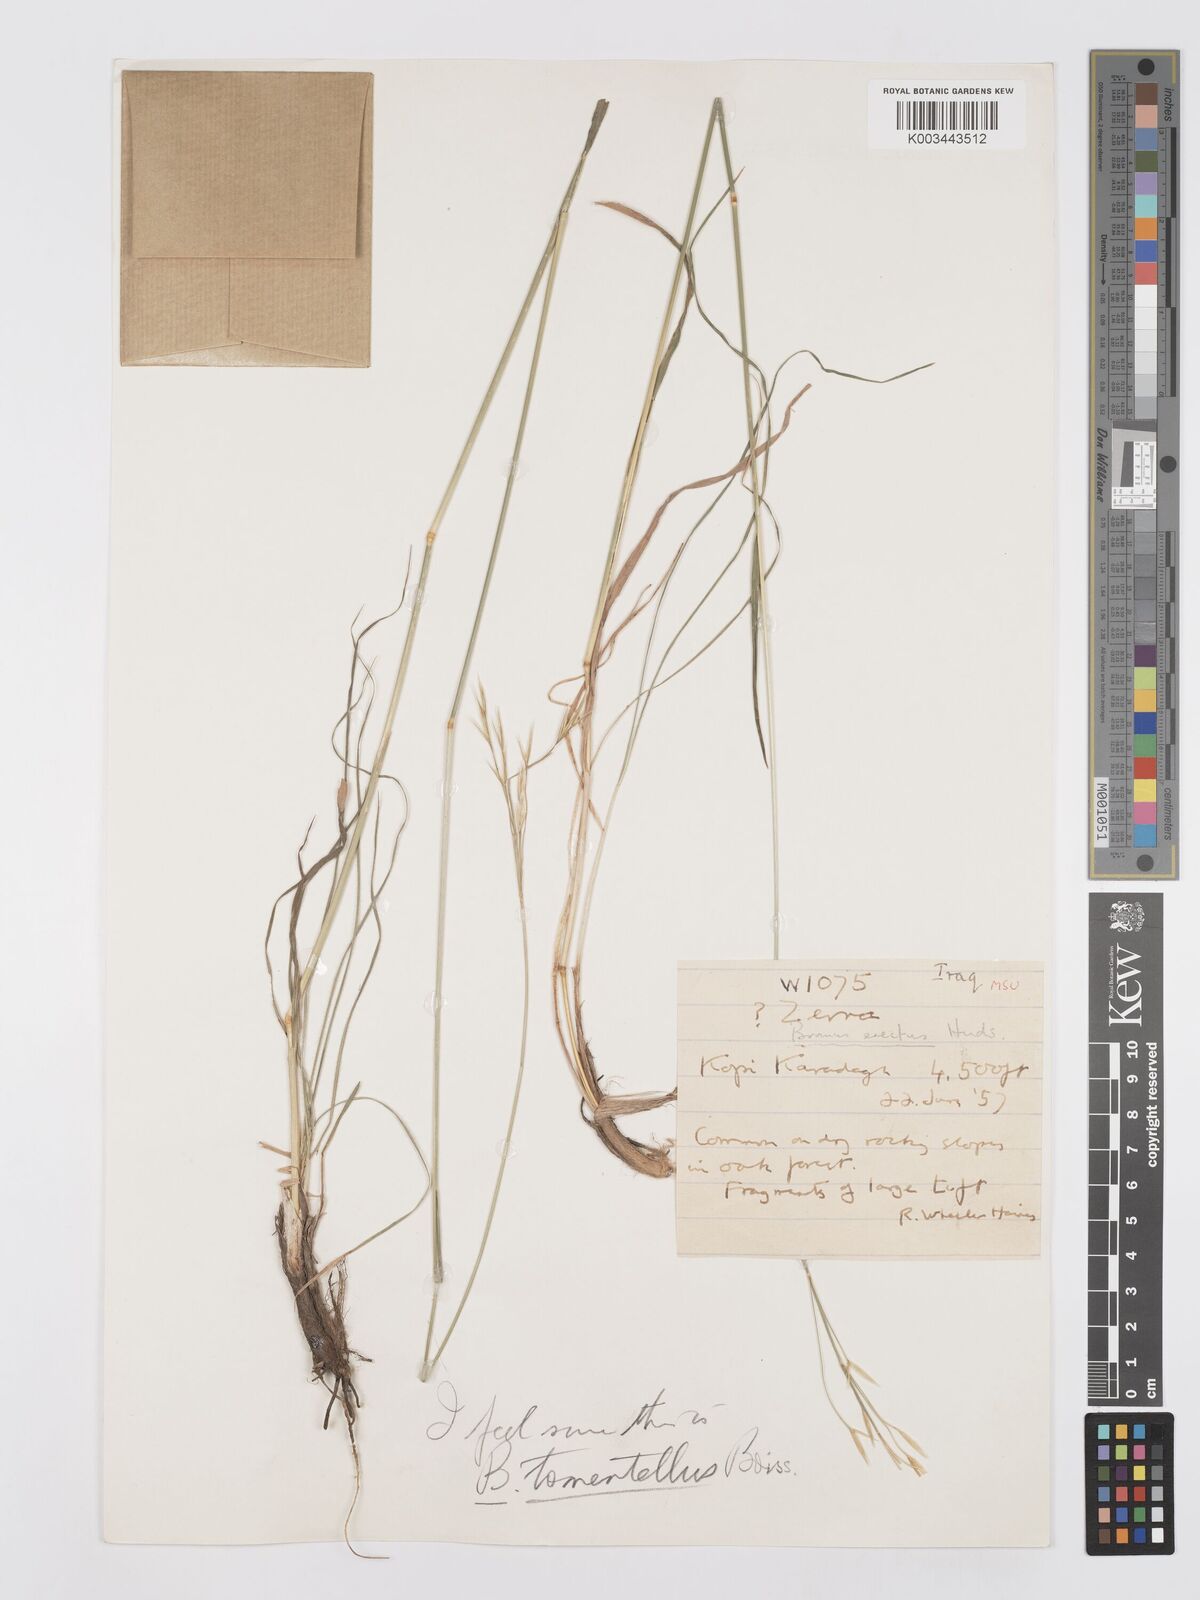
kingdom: Plantae
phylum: Tracheophyta
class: Liliopsida
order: Poales
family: Poaceae
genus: Bromus
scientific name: Bromus tomentellus
